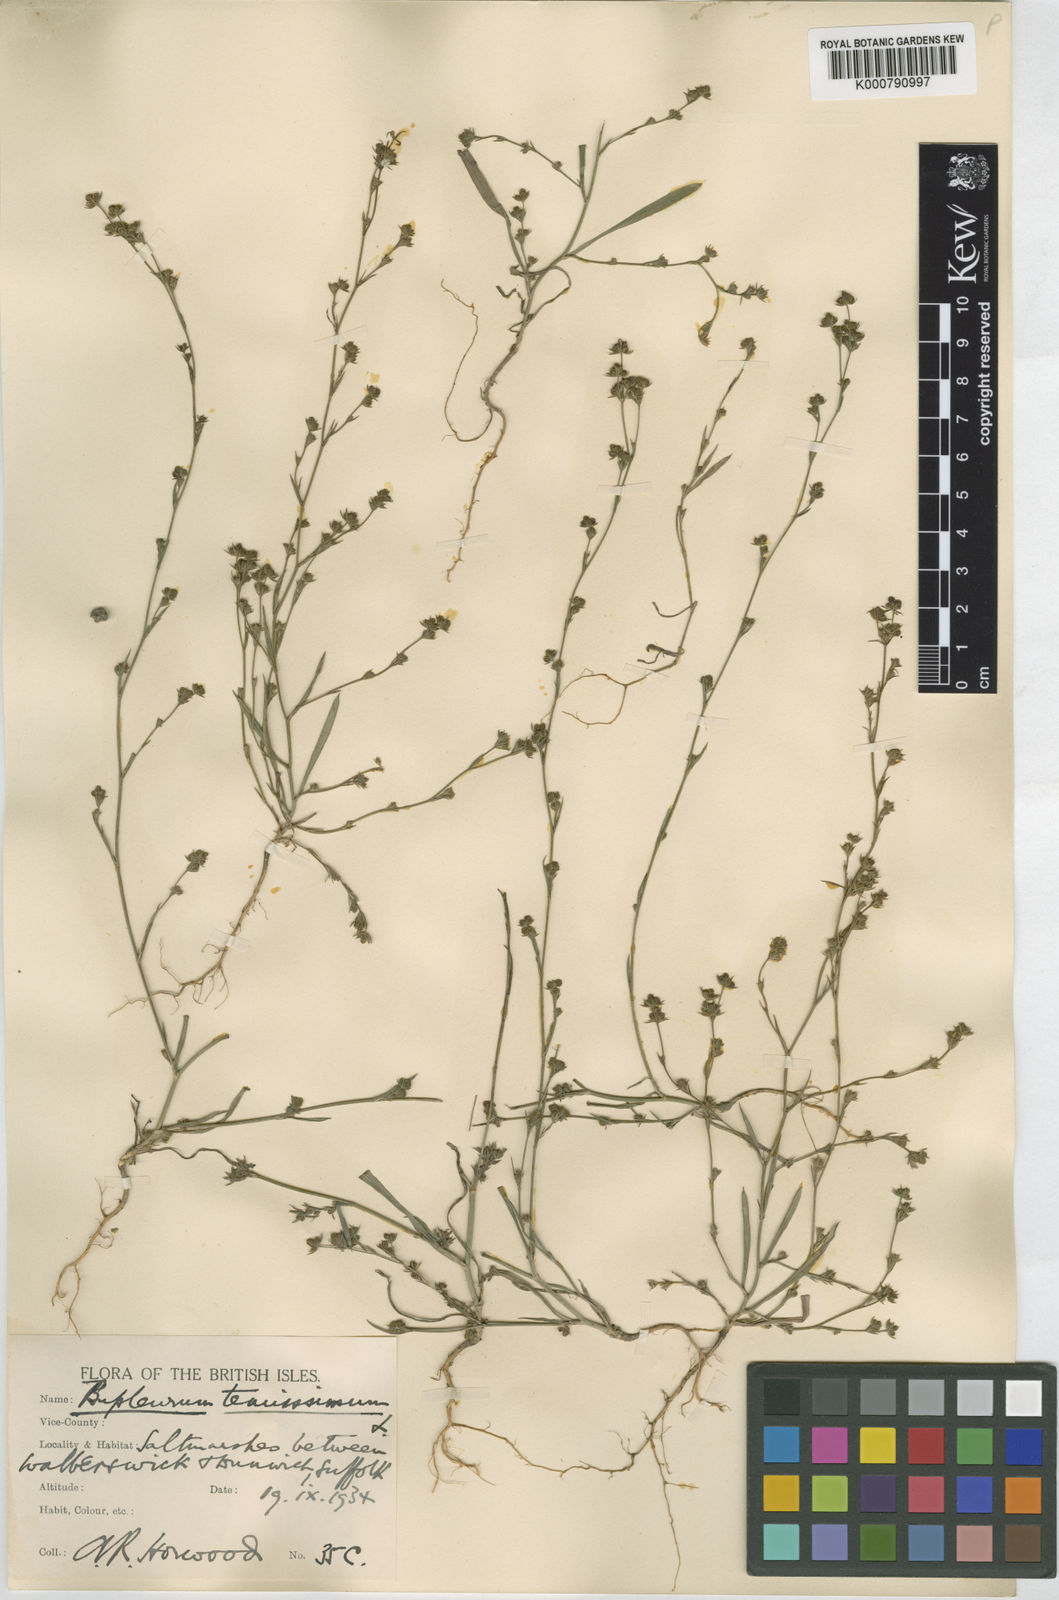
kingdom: Plantae
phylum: Tracheophyta
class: Magnoliopsida
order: Apiales
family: Apiaceae
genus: Bupleurum
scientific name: Bupleurum tenuissimum
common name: Slender hare's-ear
